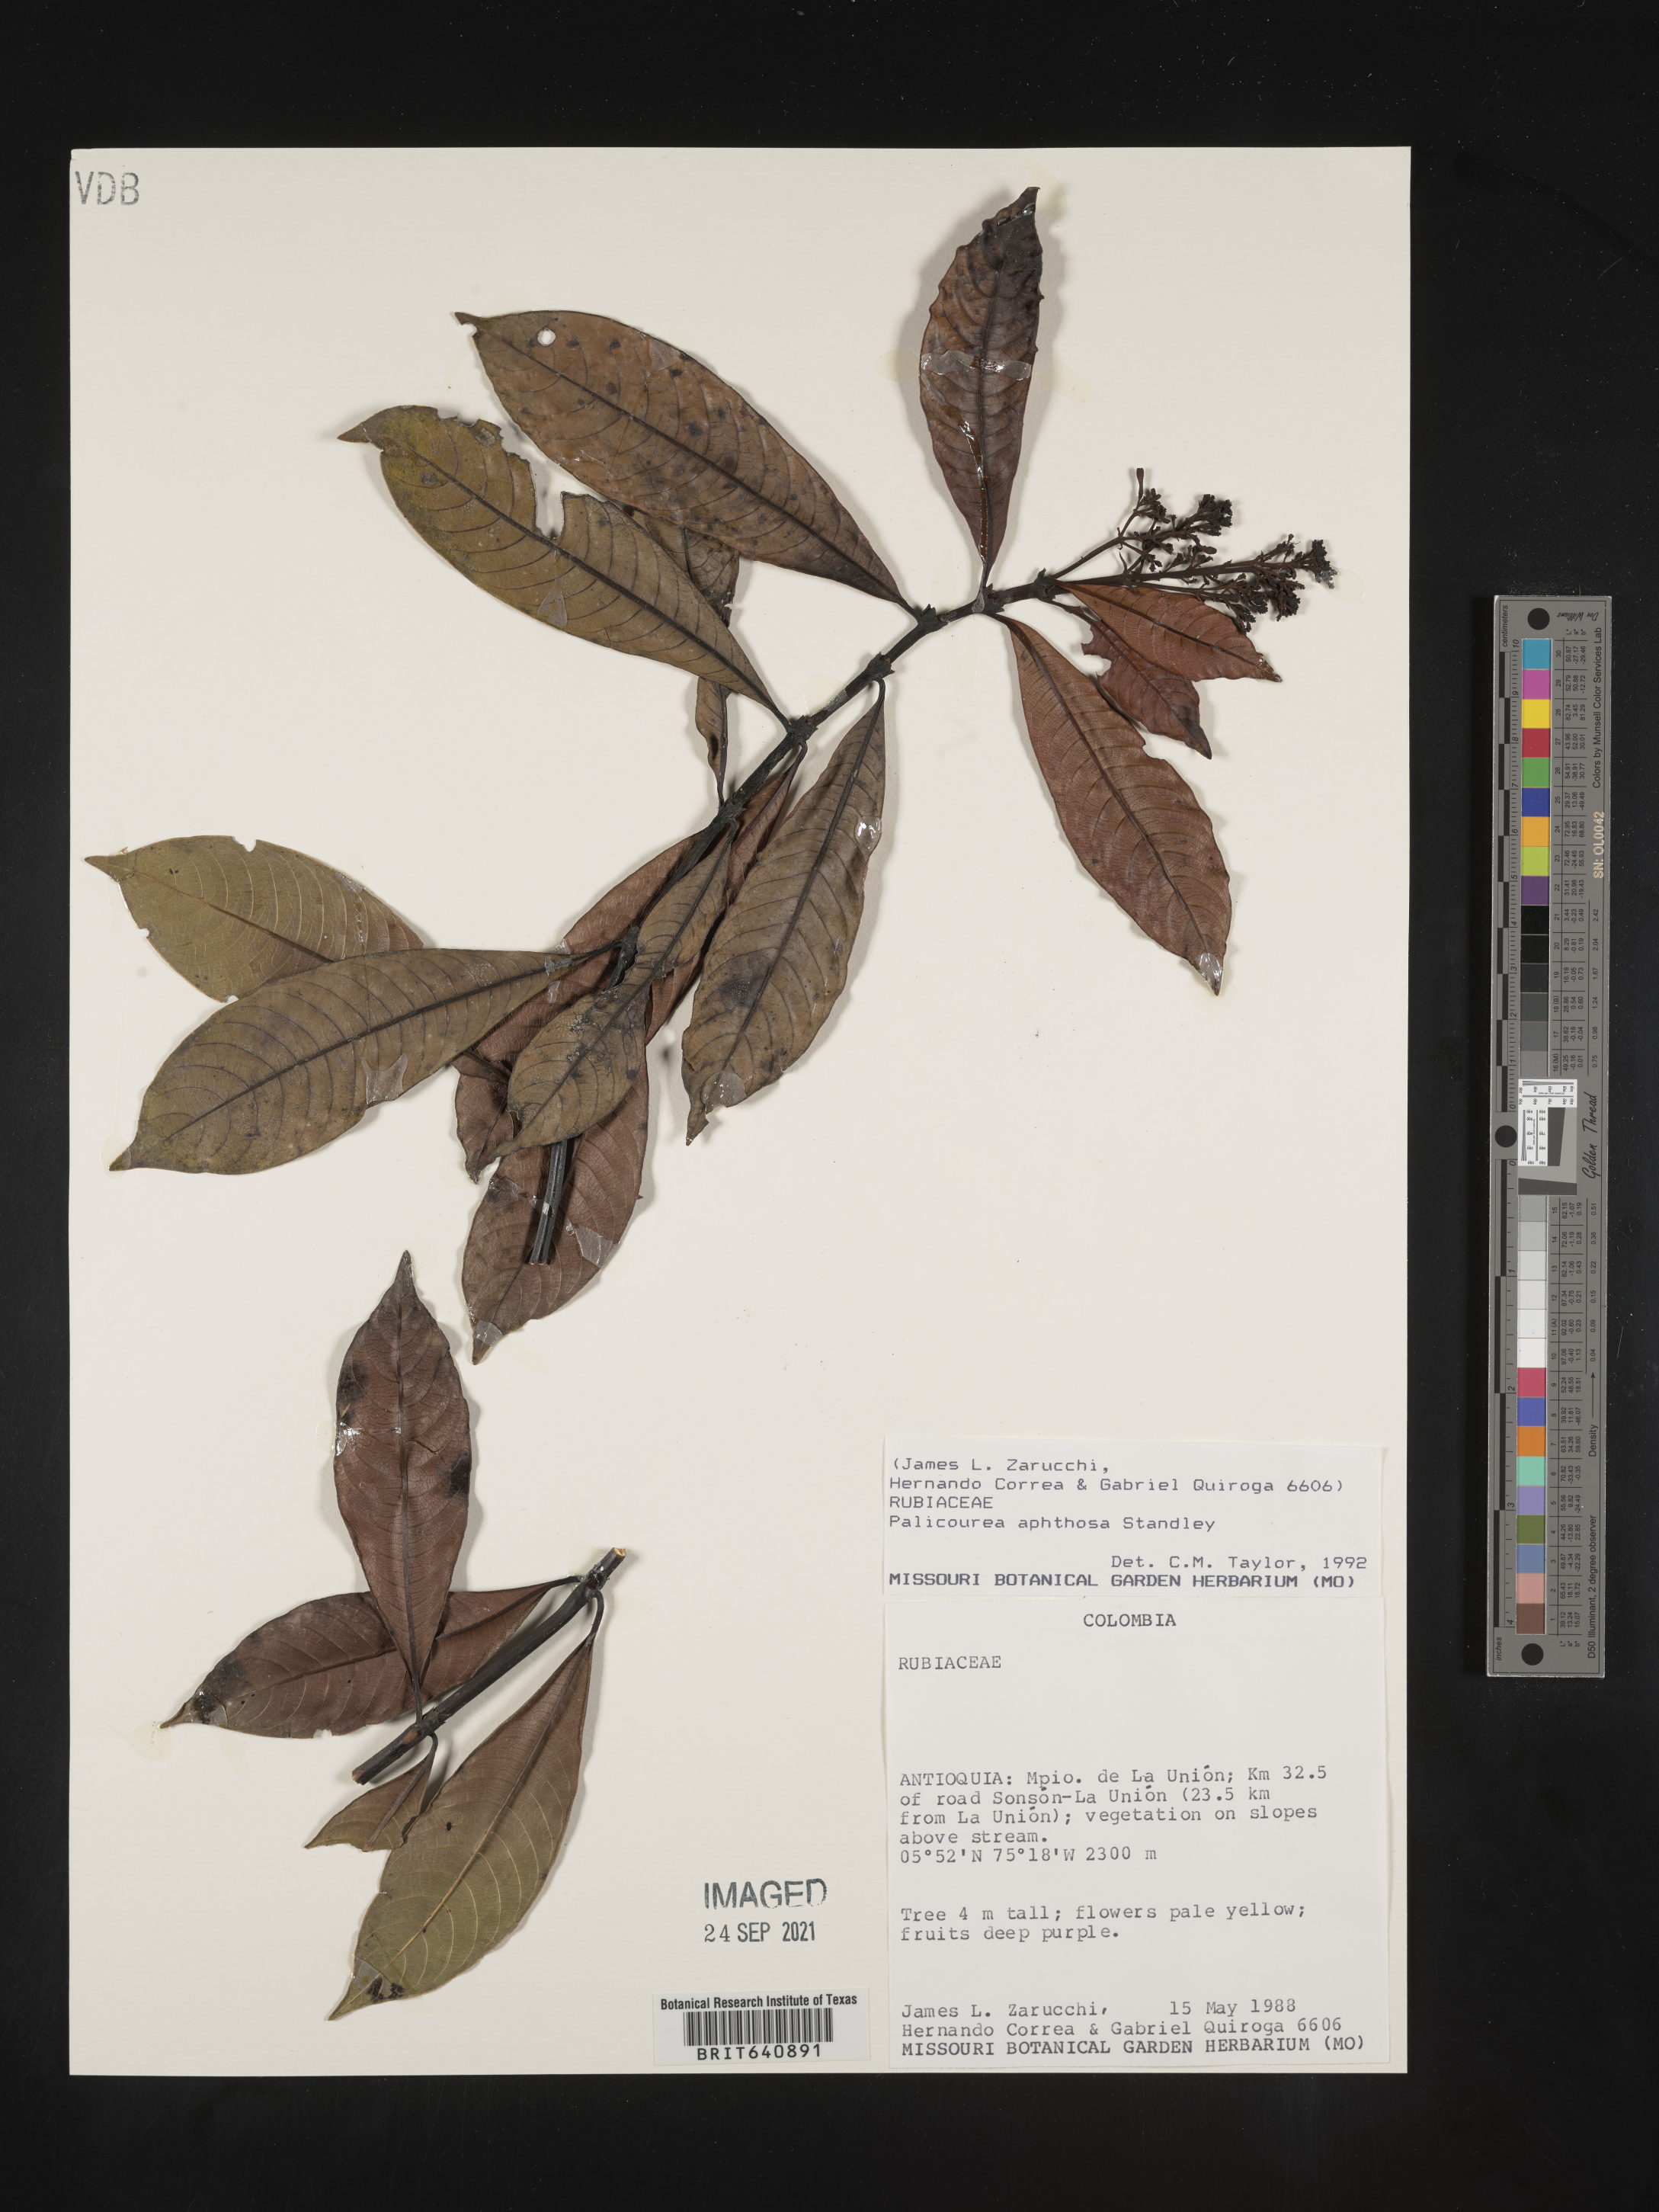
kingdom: Plantae
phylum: Tracheophyta
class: Magnoliopsida
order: Gentianales
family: Rubiaceae
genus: Palicourea
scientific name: Palicourea
